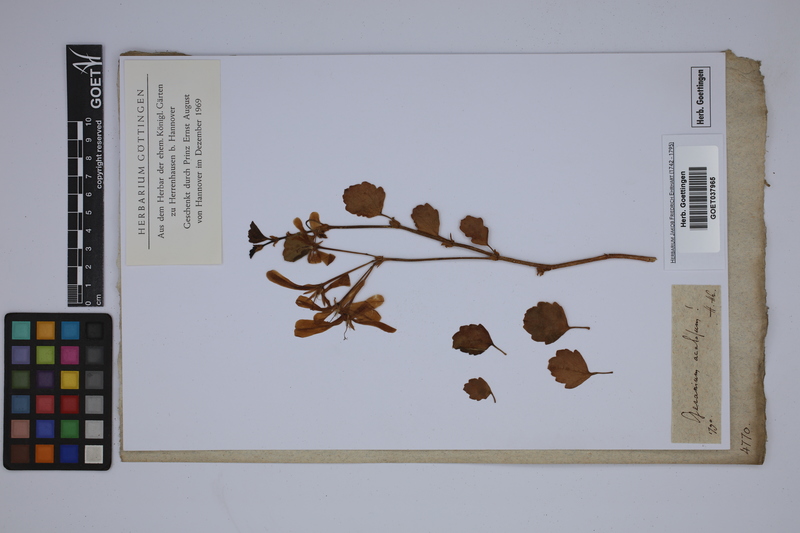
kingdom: Plantae
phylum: Tracheophyta
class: Magnoliopsida
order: Geraniales
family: Geraniaceae
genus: Pelargonium
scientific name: Pelargonium acetosum
